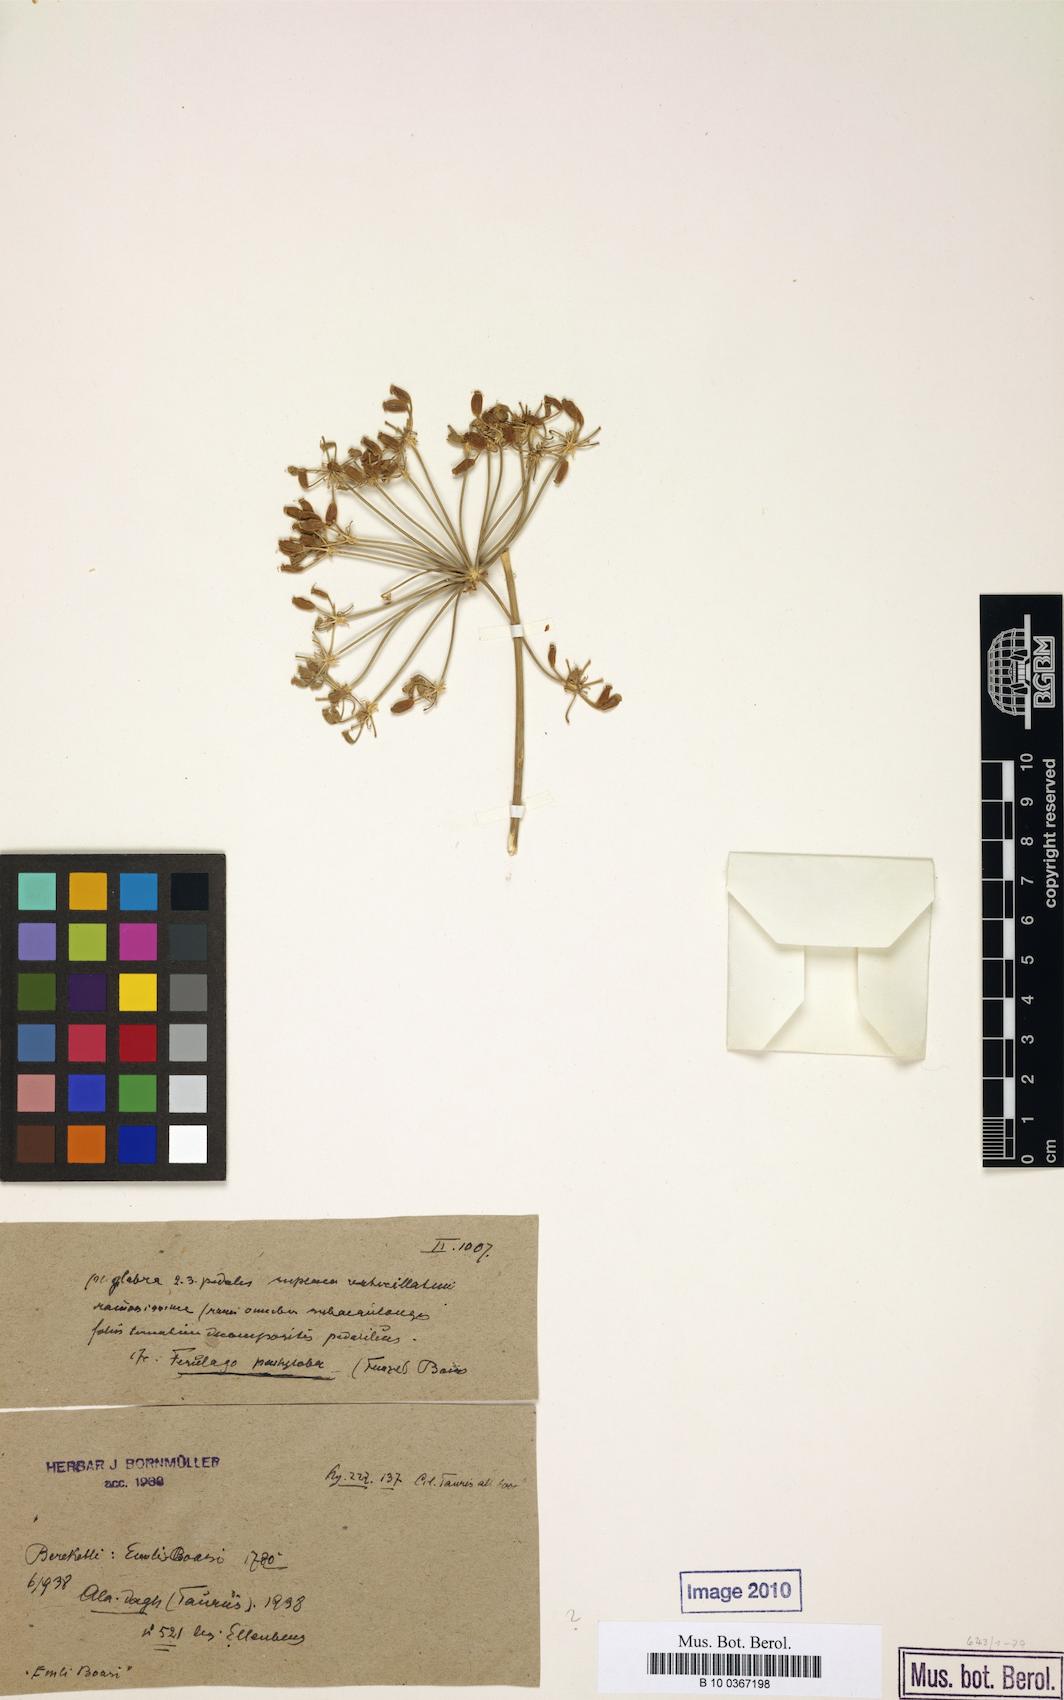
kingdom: Plantae
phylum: Tracheophyta
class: Magnoliopsida
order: Apiales
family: Apiaceae
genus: Ferulago
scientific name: Ferulago pachyloba
